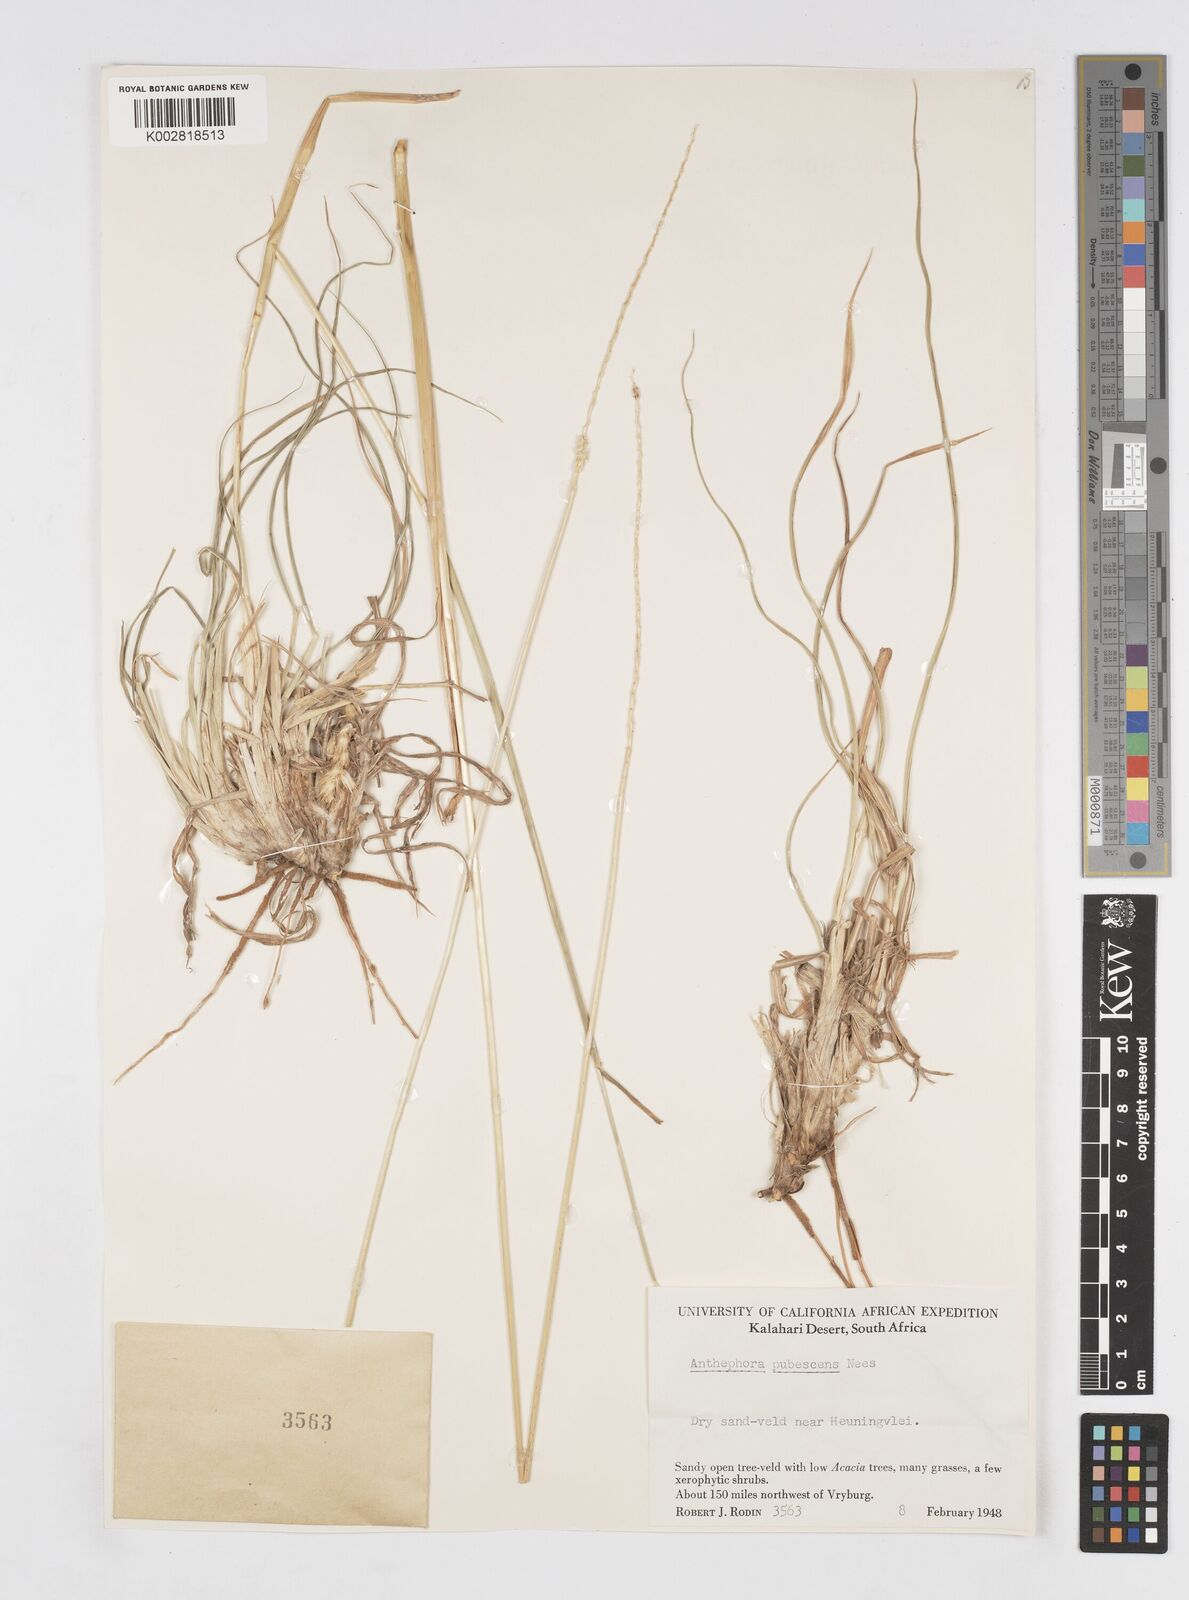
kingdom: Plantae
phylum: Tracheophyta
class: Liliopsida
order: Poales
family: Poaceae
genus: Anthephora
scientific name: Anthephora pubescens
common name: Wool grass
